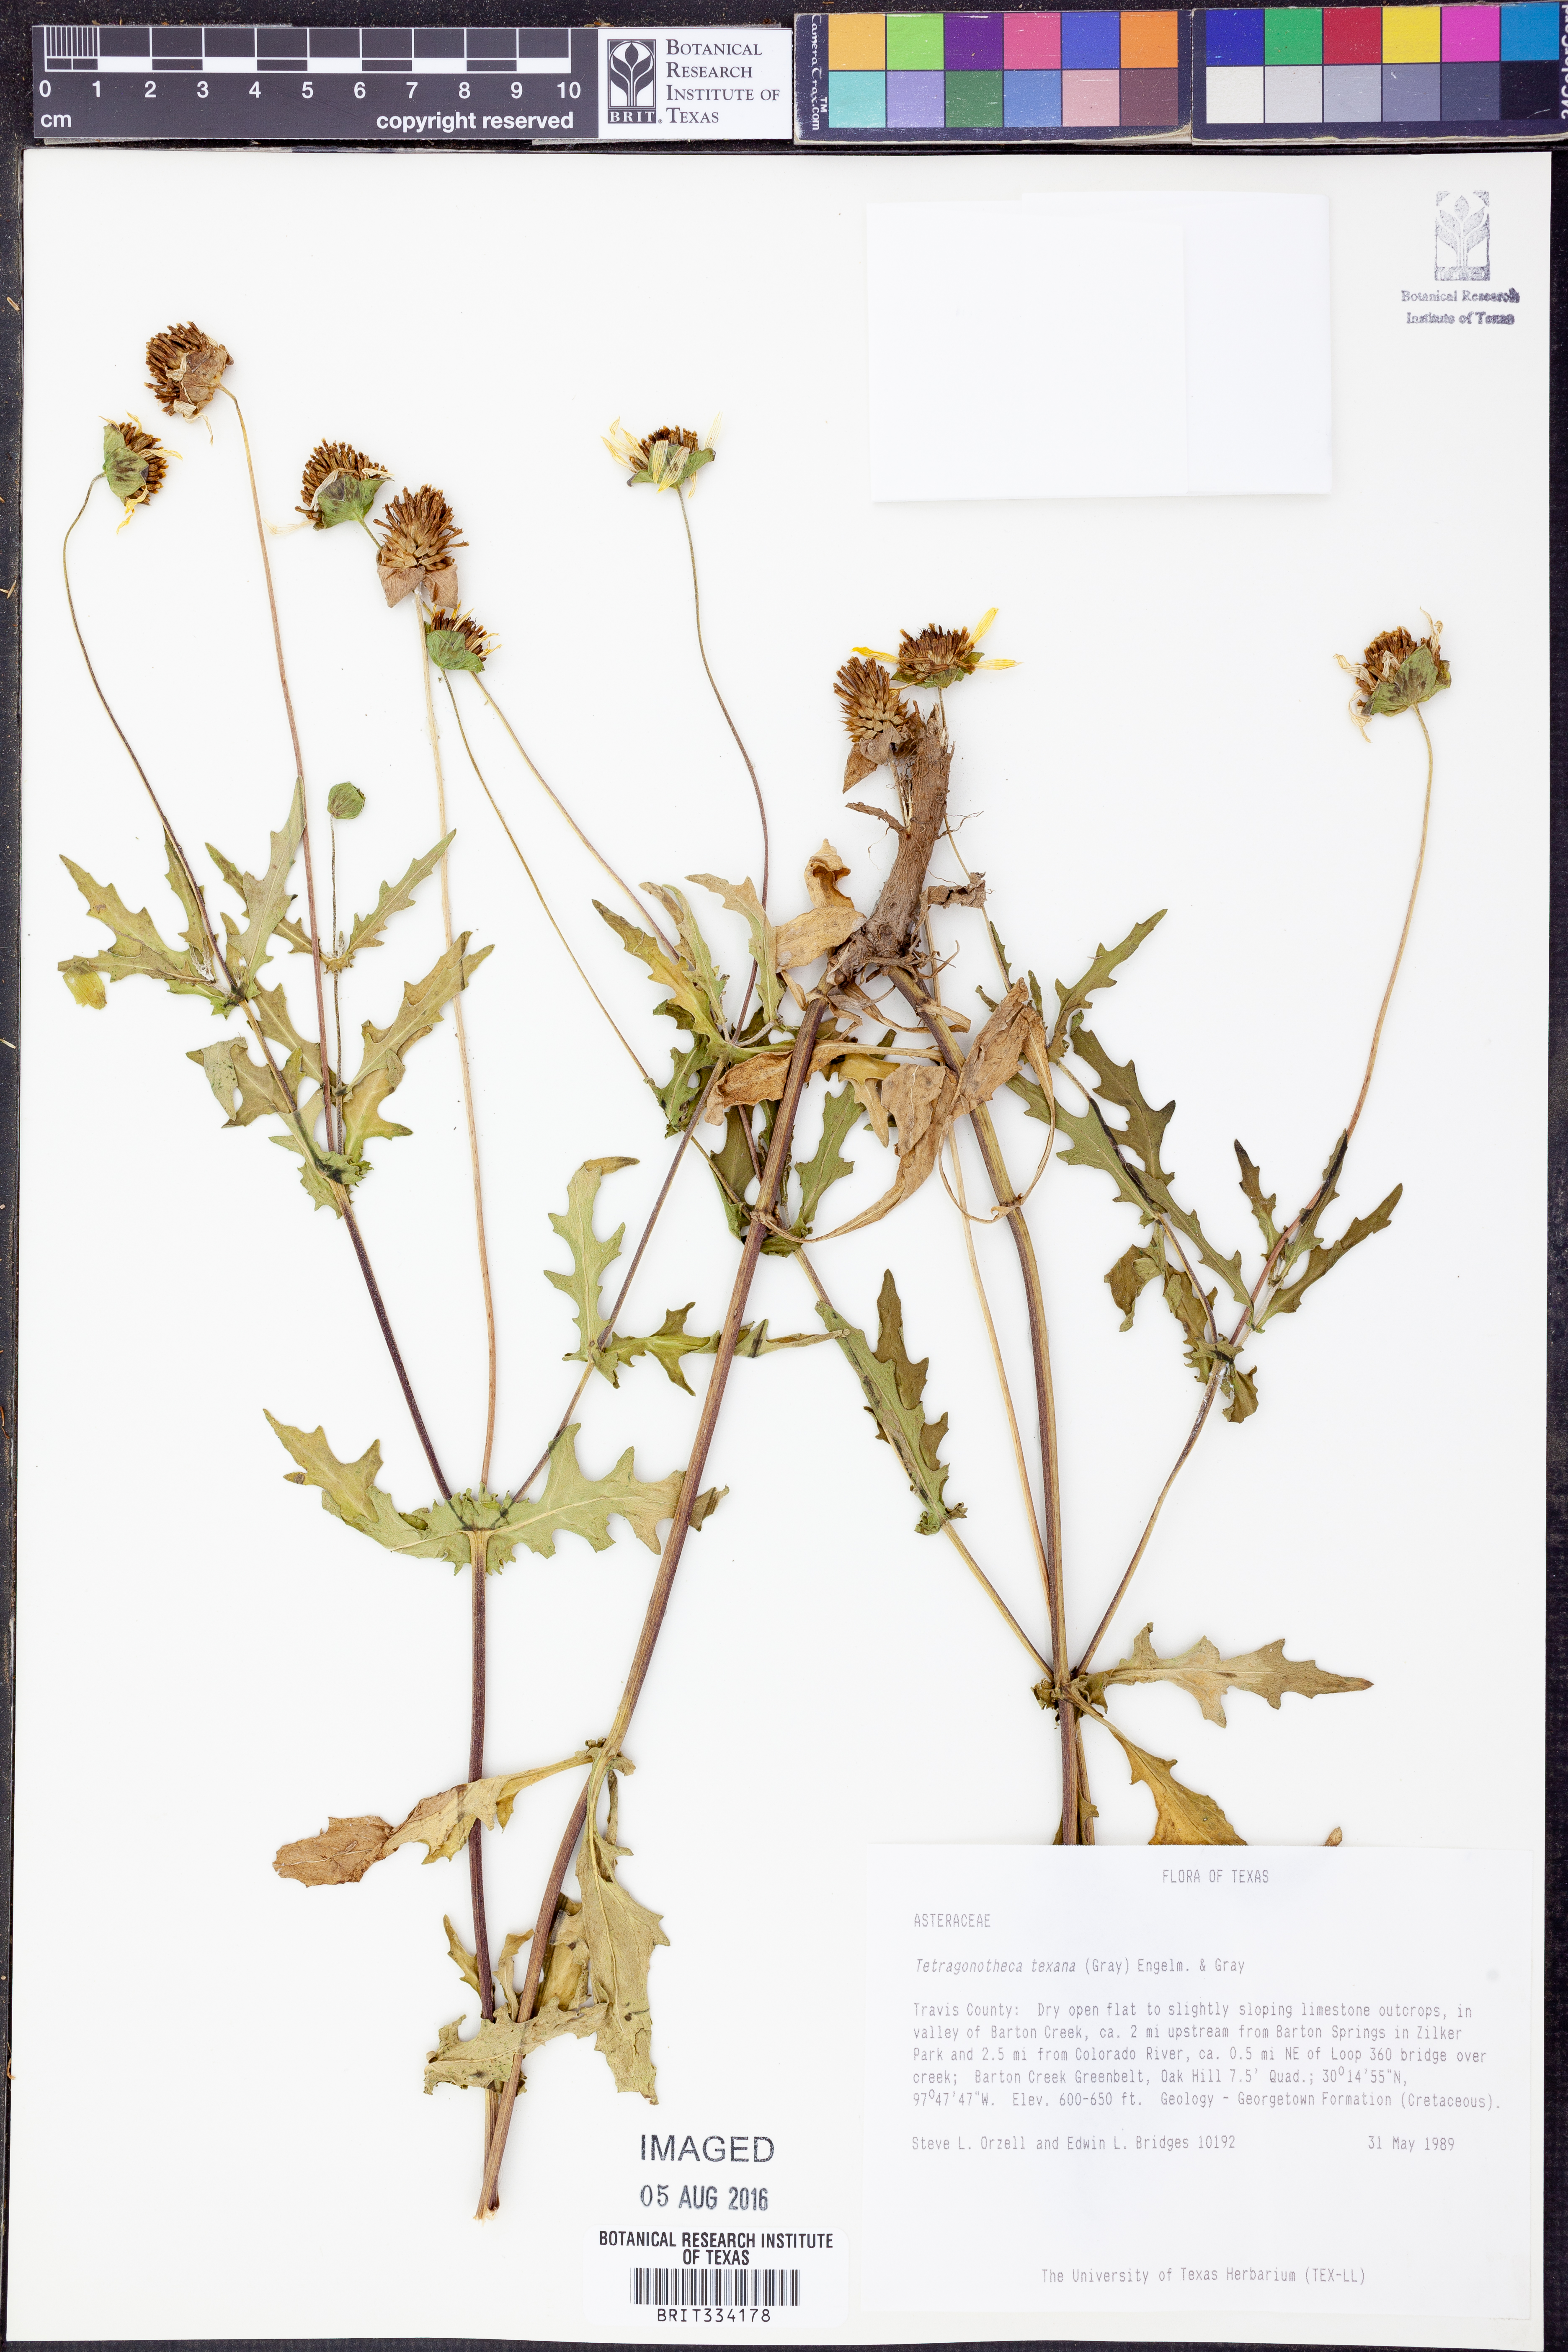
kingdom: Plantae
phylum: Tracheophyta
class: Magnoliopsida
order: Asterales
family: Asteraceae
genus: Tetragonotheca
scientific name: Tetragonotheca texana
